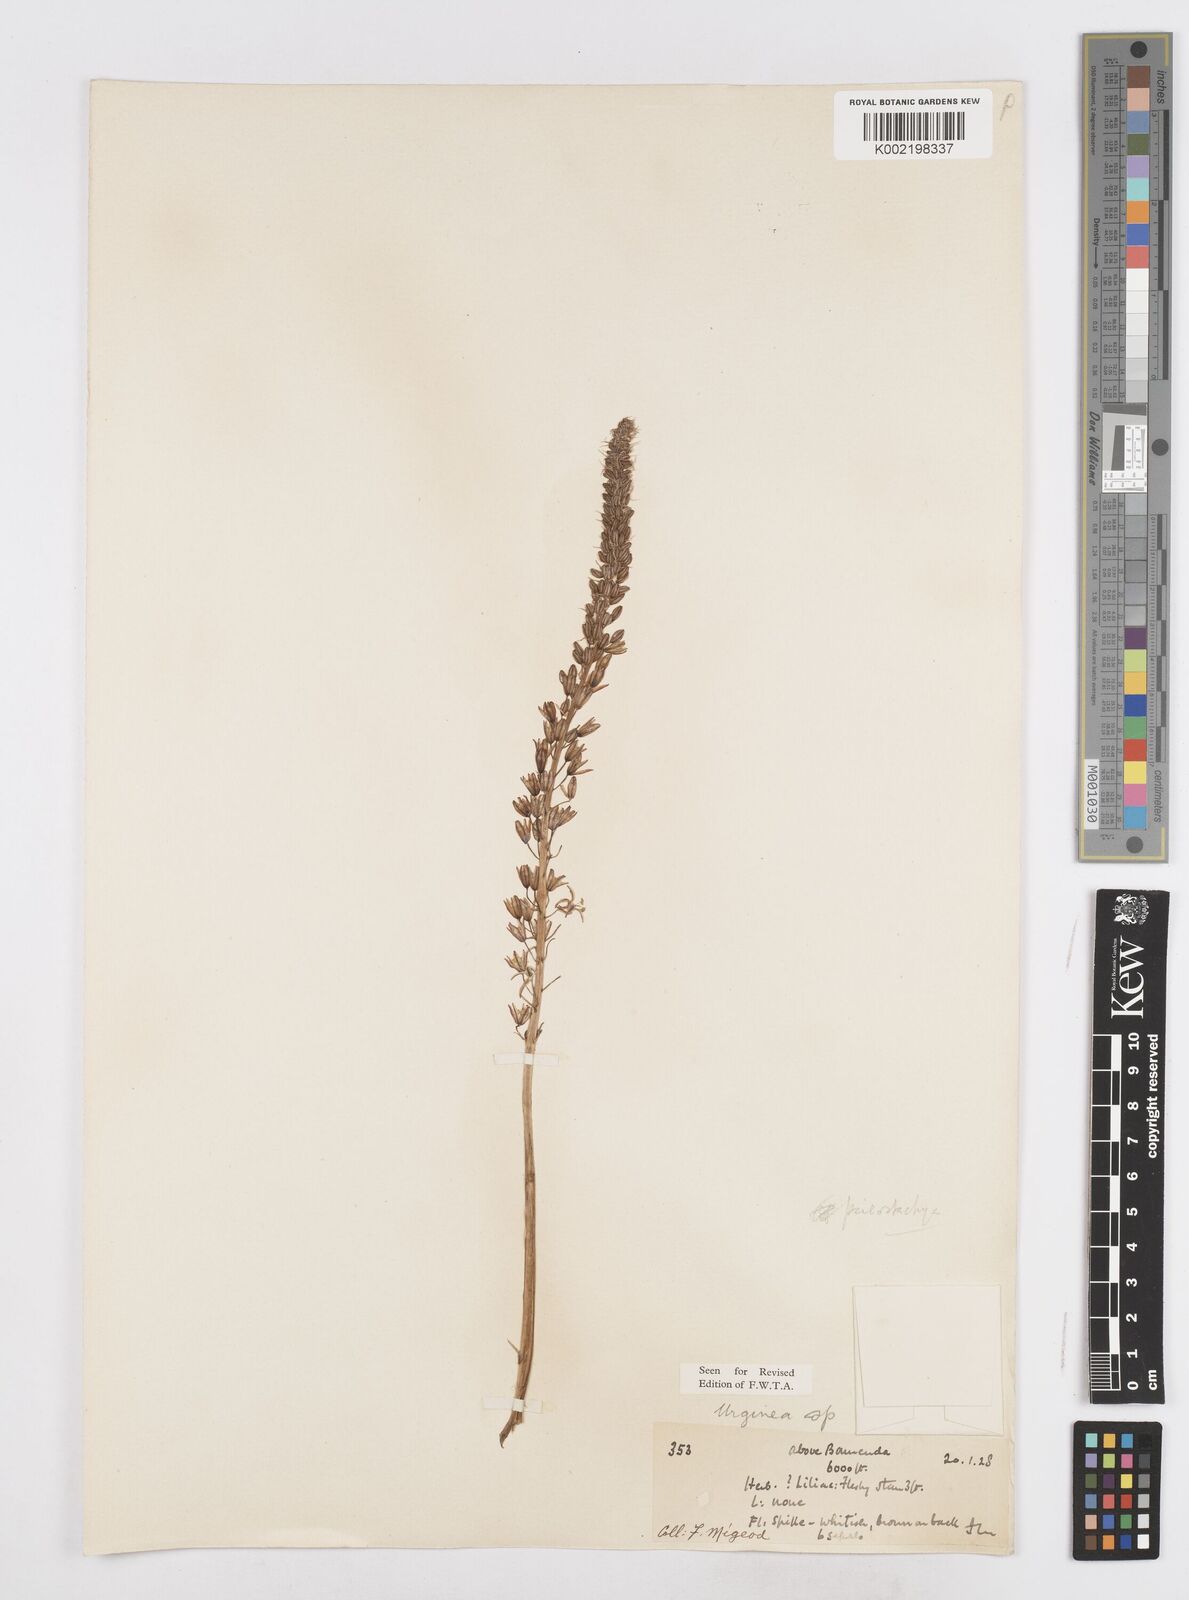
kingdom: Plantae
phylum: Tracheophyta
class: Liliopsida
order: Asparagales
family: Asparagaceae
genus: Drimia
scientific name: Drimia altissima
